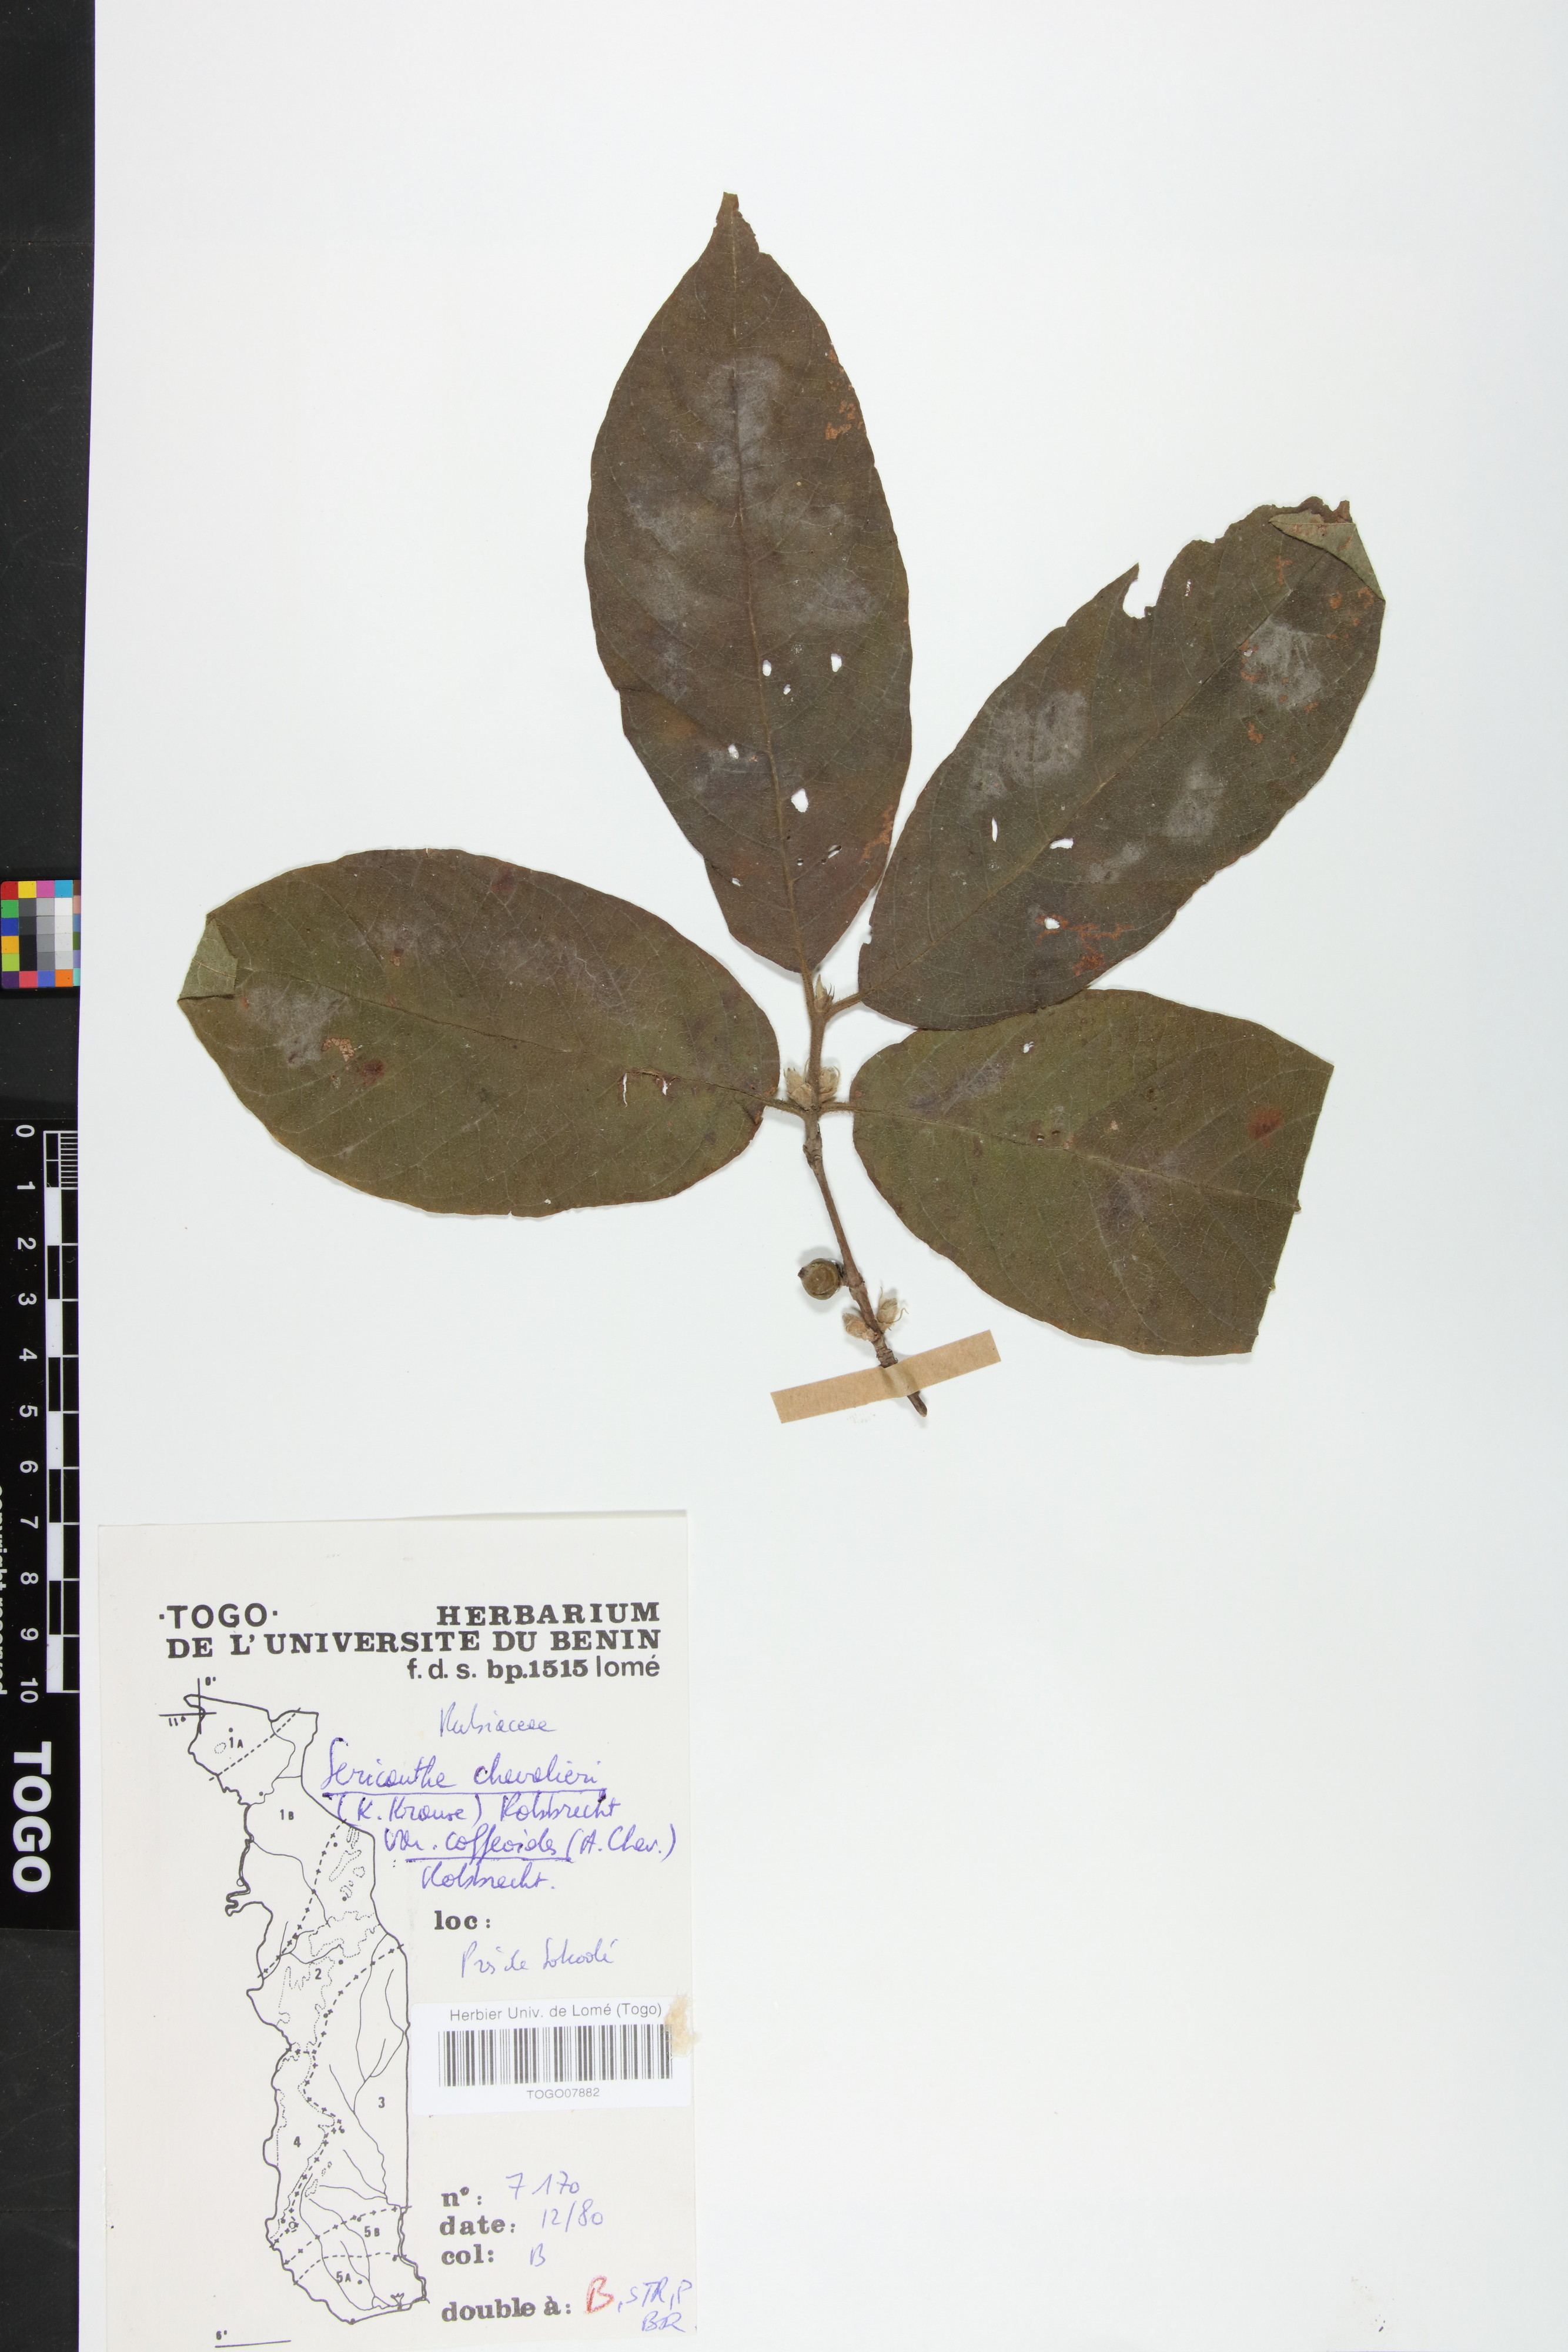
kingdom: Plantae
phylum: Tracheophyta
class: Magnoliopsida
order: Gentianales
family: Rubiaceae
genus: Sericanthe
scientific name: Sericanthe chevalieri
